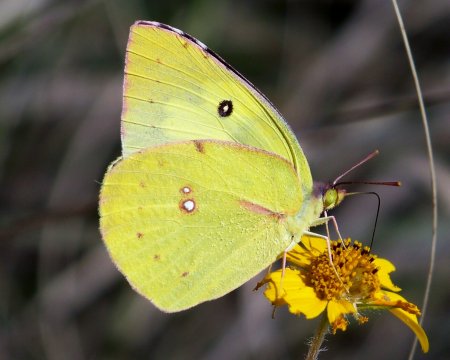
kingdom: Animalia
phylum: Arthropoda
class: Insecta
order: Lepidoptera
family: Pieridae
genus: Zerene
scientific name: Zerene cesonia
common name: Southern Dogface
